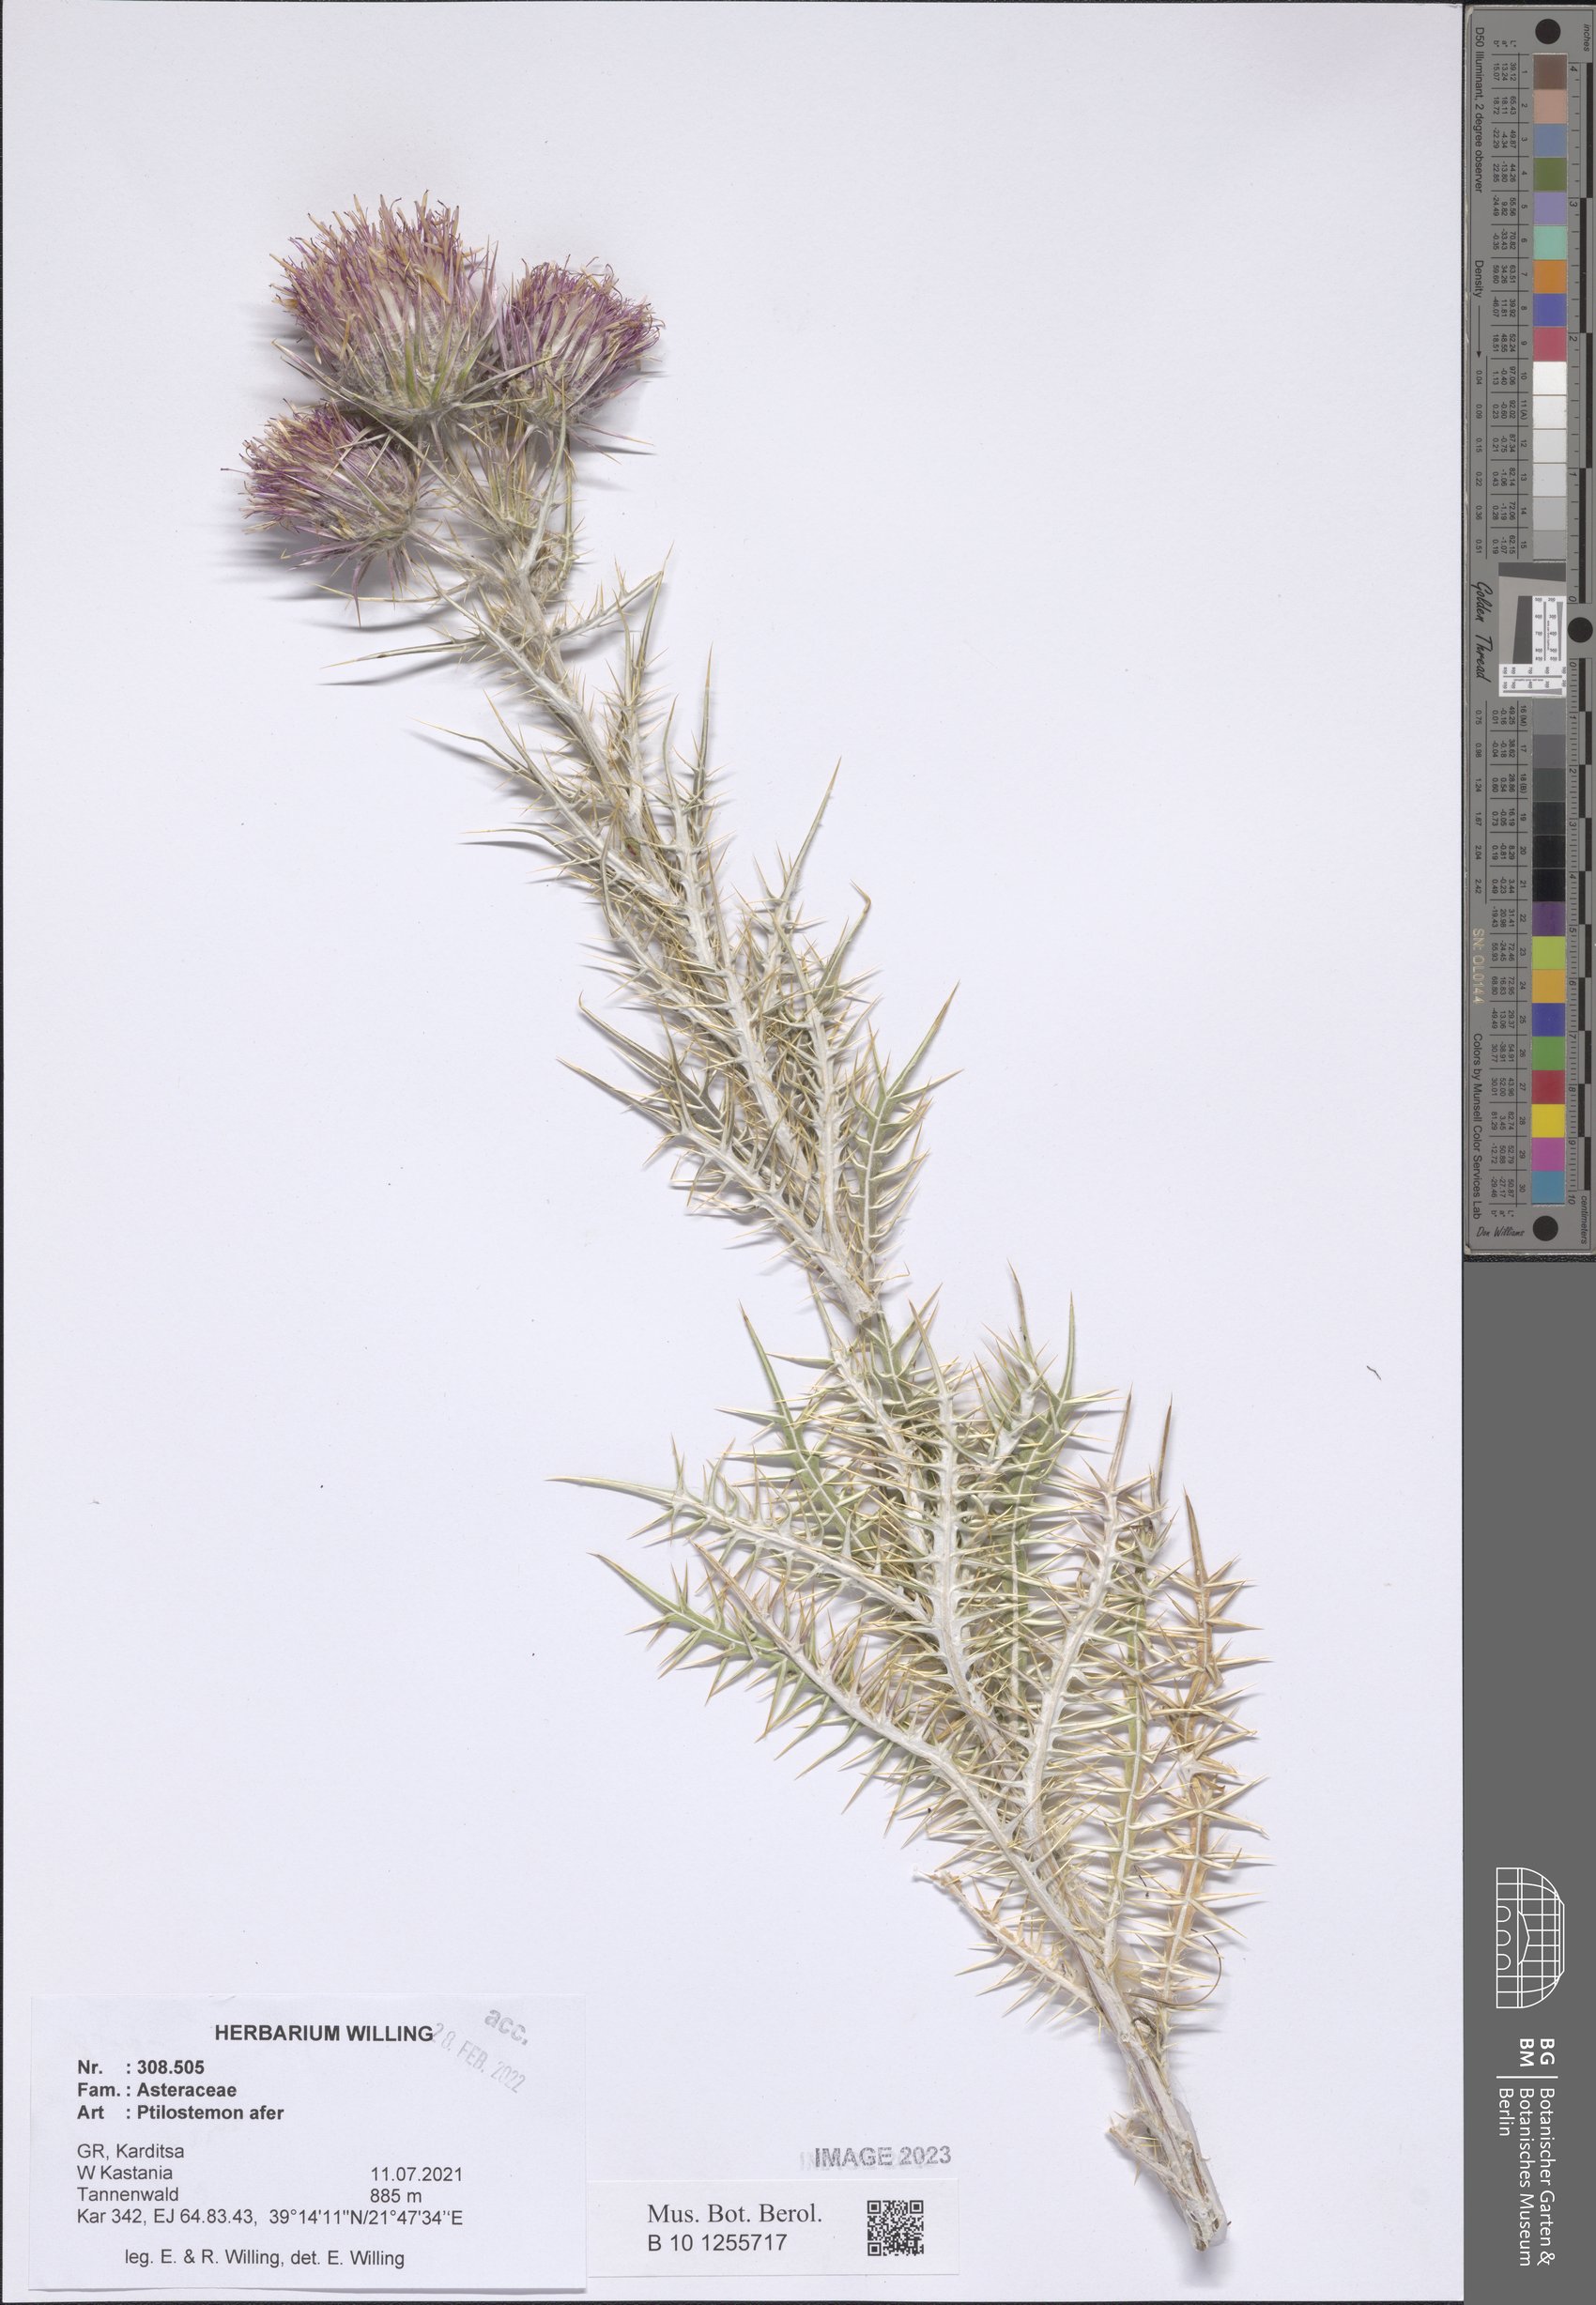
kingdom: Plantae
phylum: Tracheophyta
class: Magnoliopsida
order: Asterales
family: Asteraceae
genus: Ptilostemon
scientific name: Ptilostemon afer
